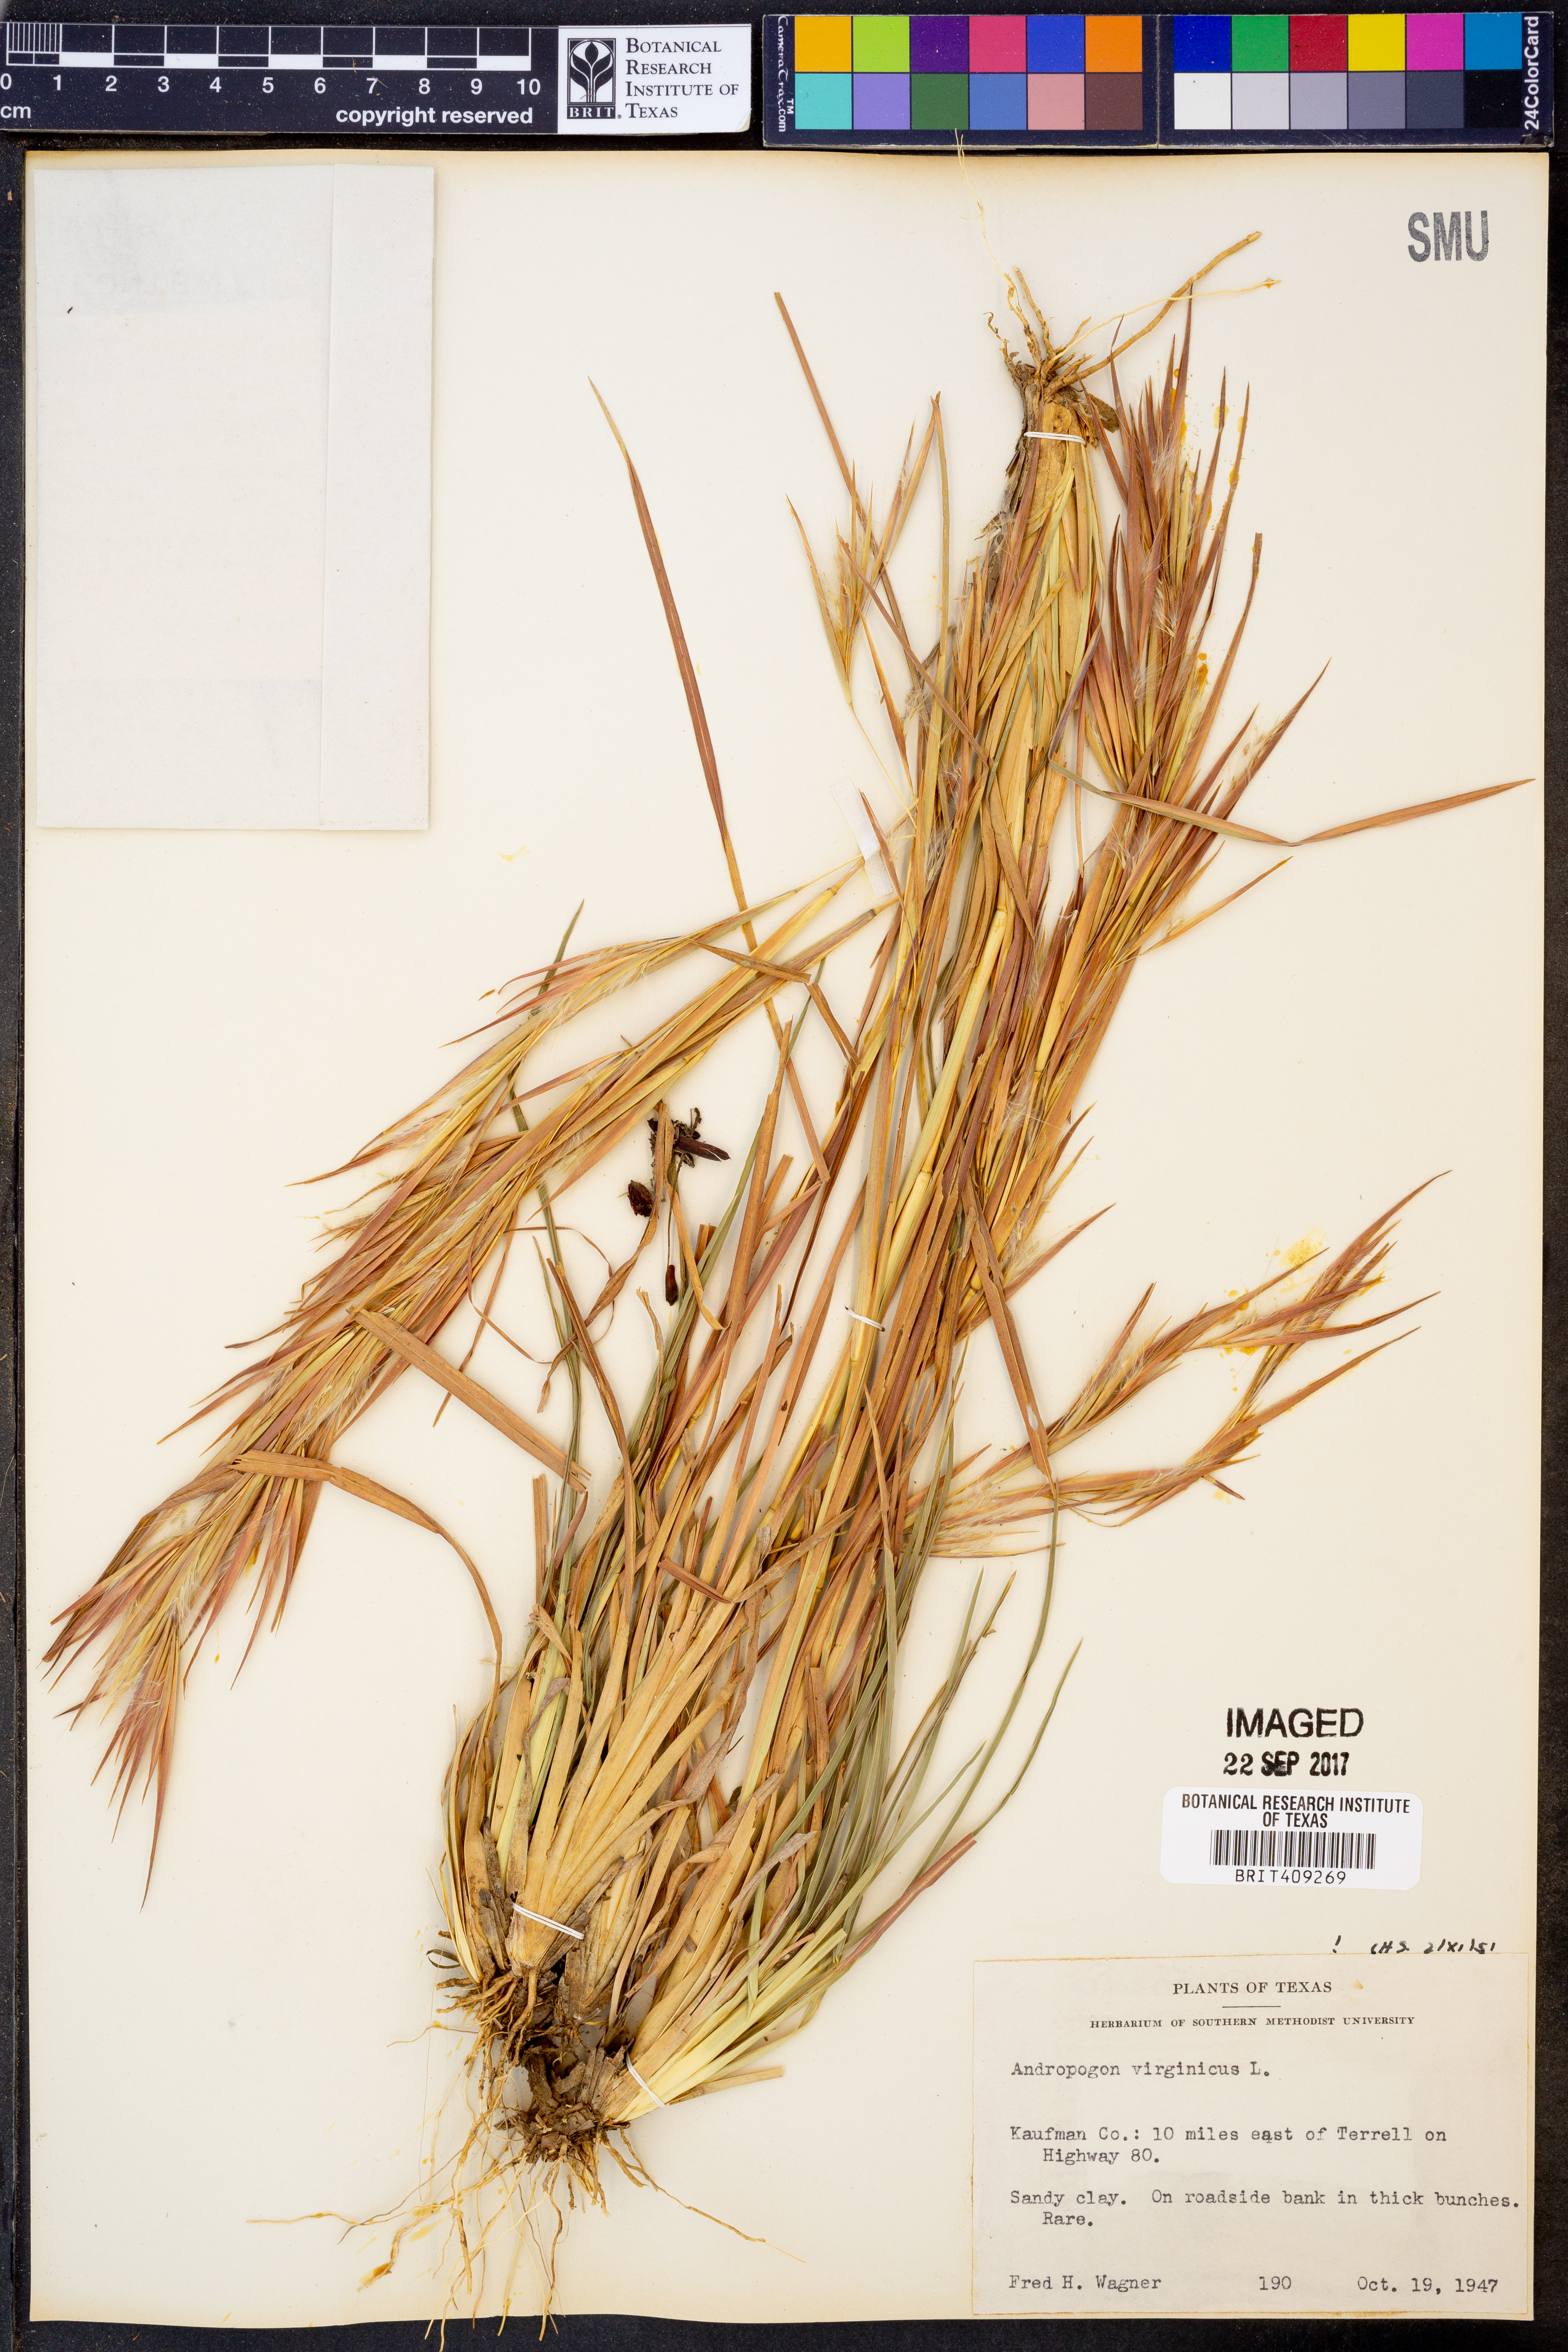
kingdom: Plantae
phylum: Tracheophyta
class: Liliopsida
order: Poales
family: Poaceae
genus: Andropogon
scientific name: Andropogon virginicus
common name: Broomsedge bluestem
